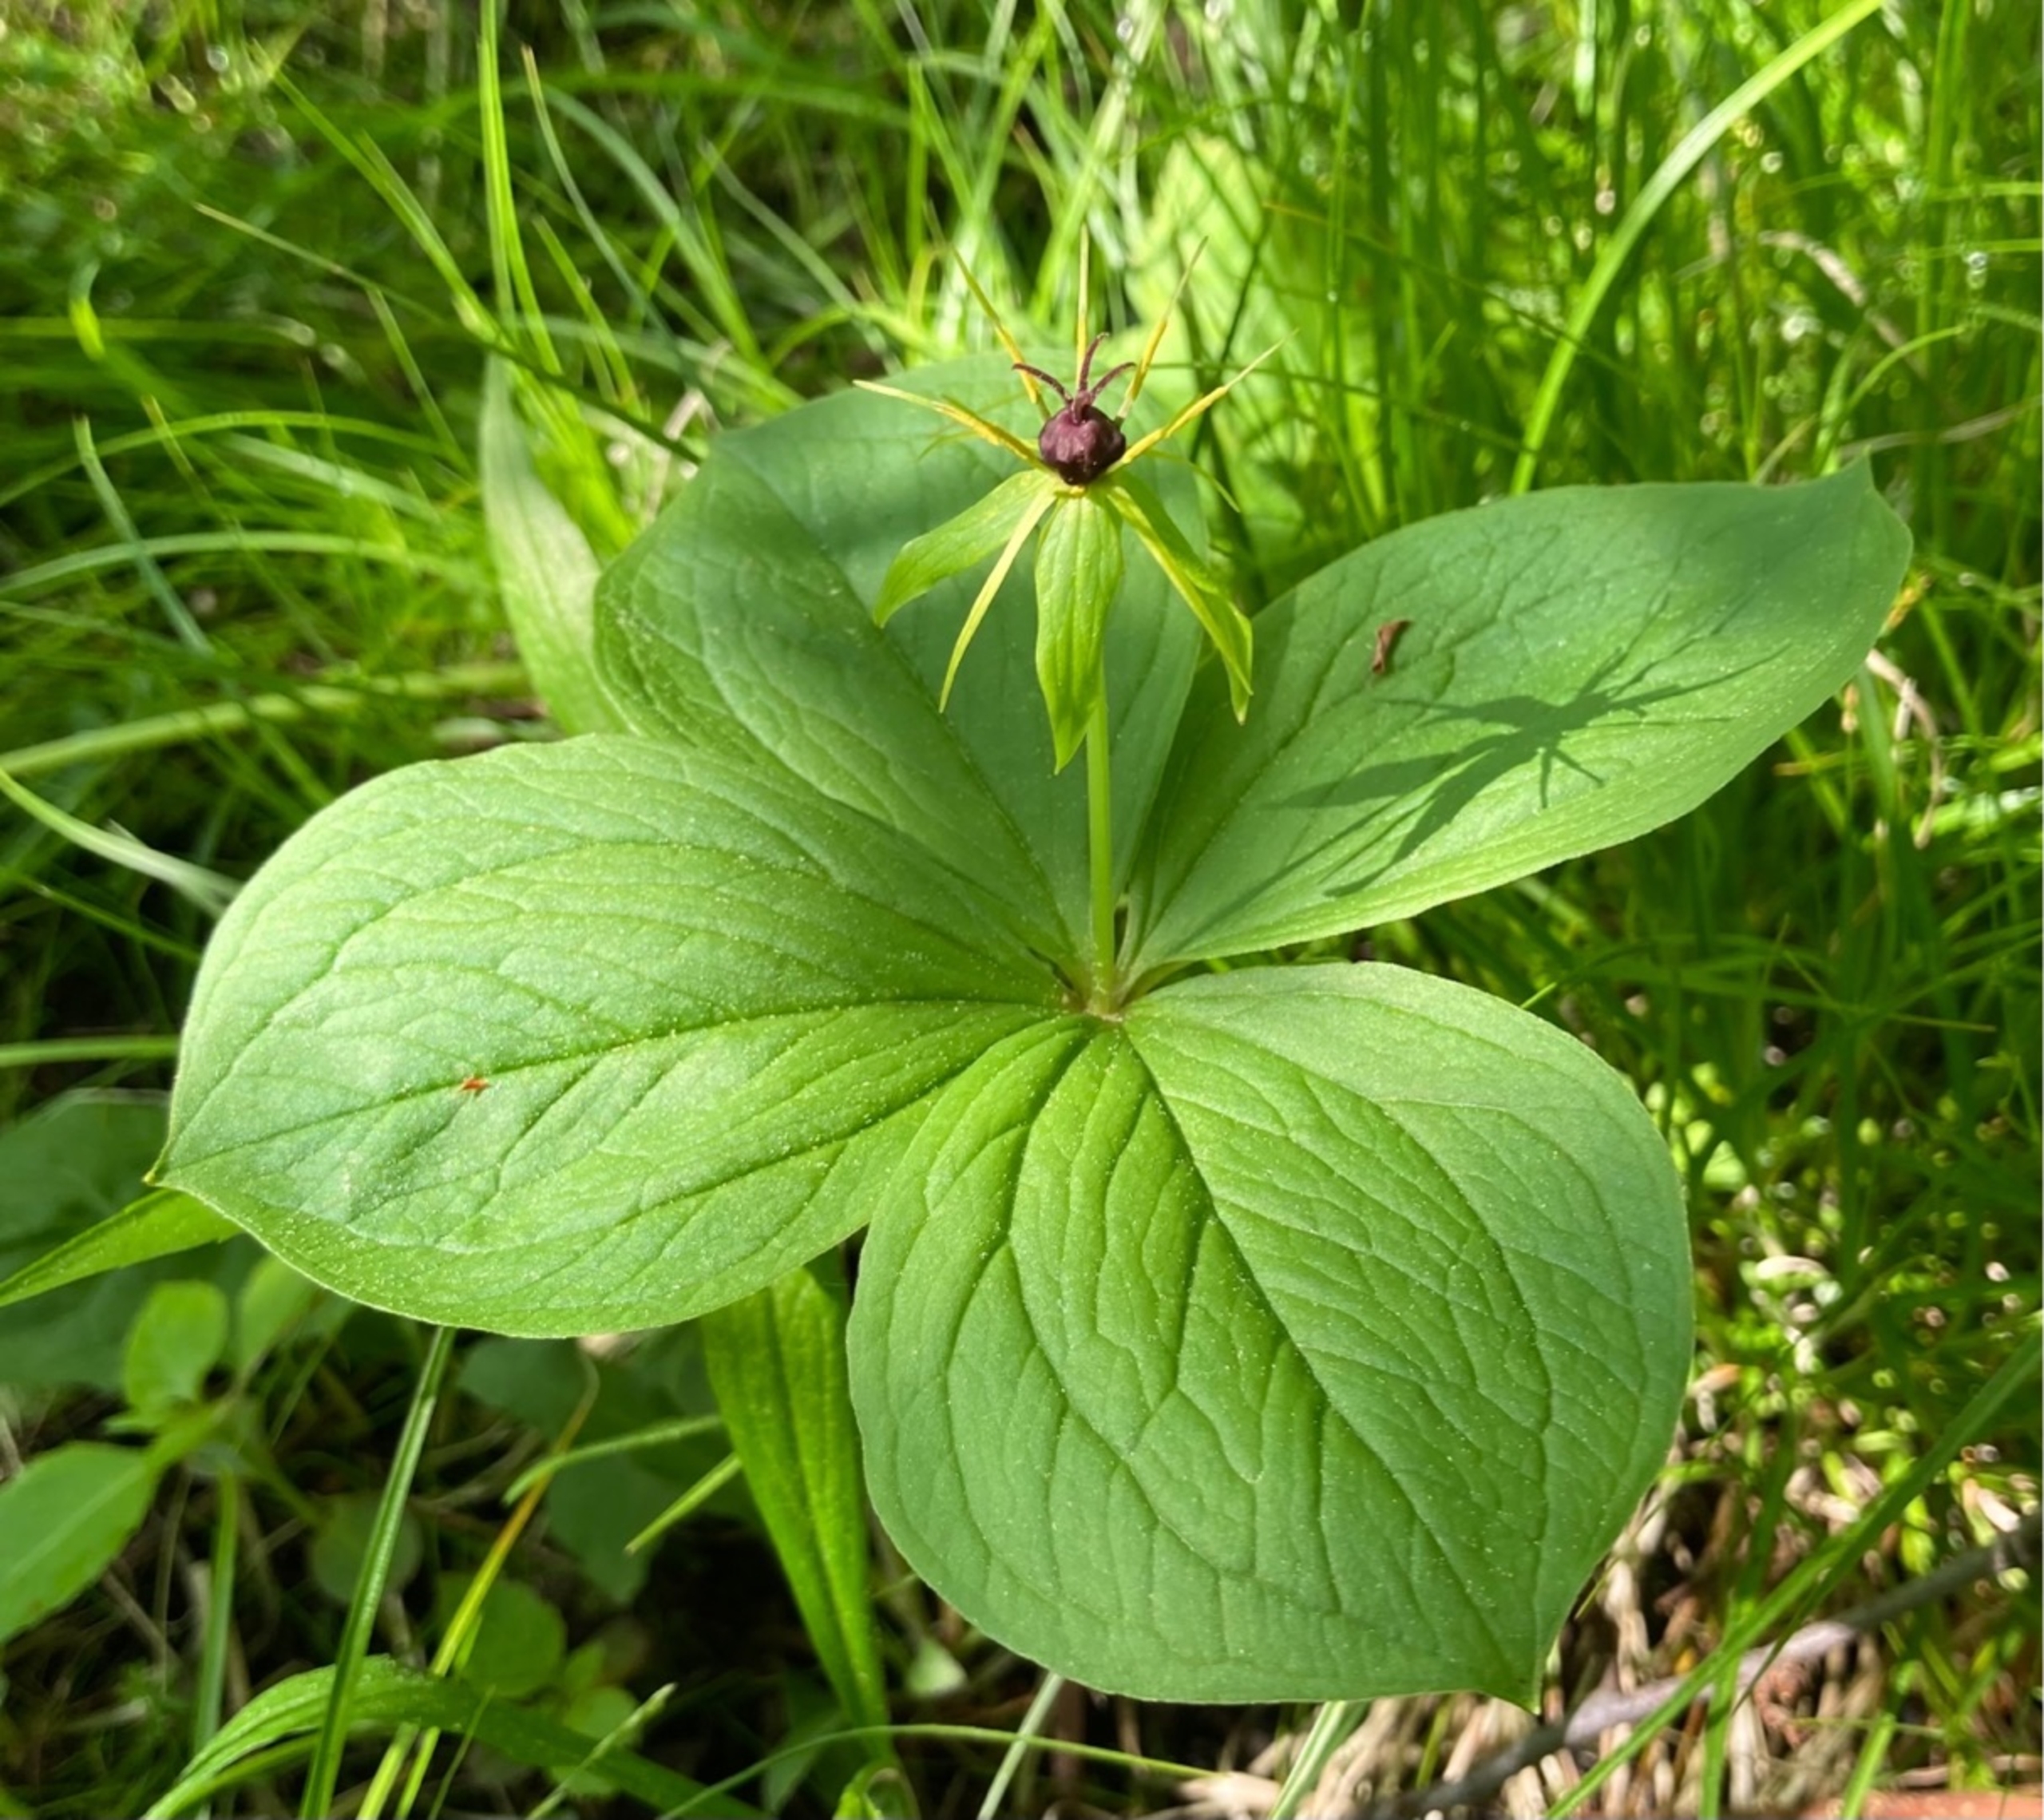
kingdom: Plantae
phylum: Tracheophyta
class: Liliopsida
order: Liliales
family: Melanthiaceae
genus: Paris
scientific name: Paris quadrifolia
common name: Firblad
